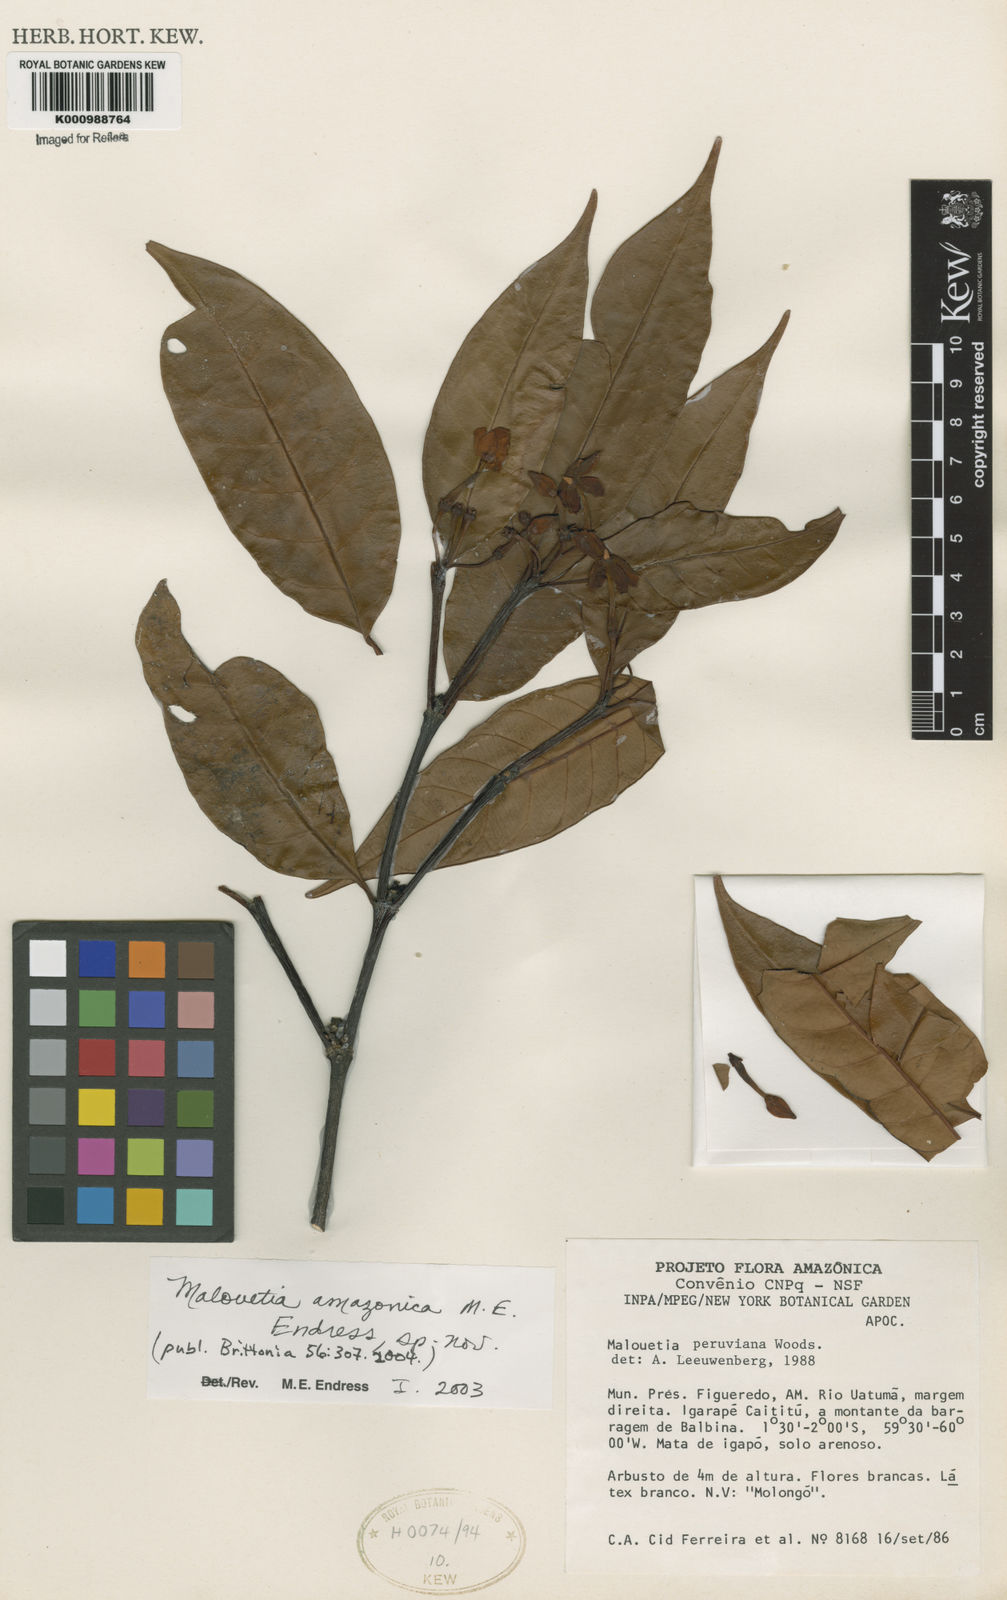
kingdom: Plantae
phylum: Tracheophyta
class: Magnoliopsida
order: Gentianales
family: Apocynaceae
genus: Malouetia
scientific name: Malouetia amazonica
